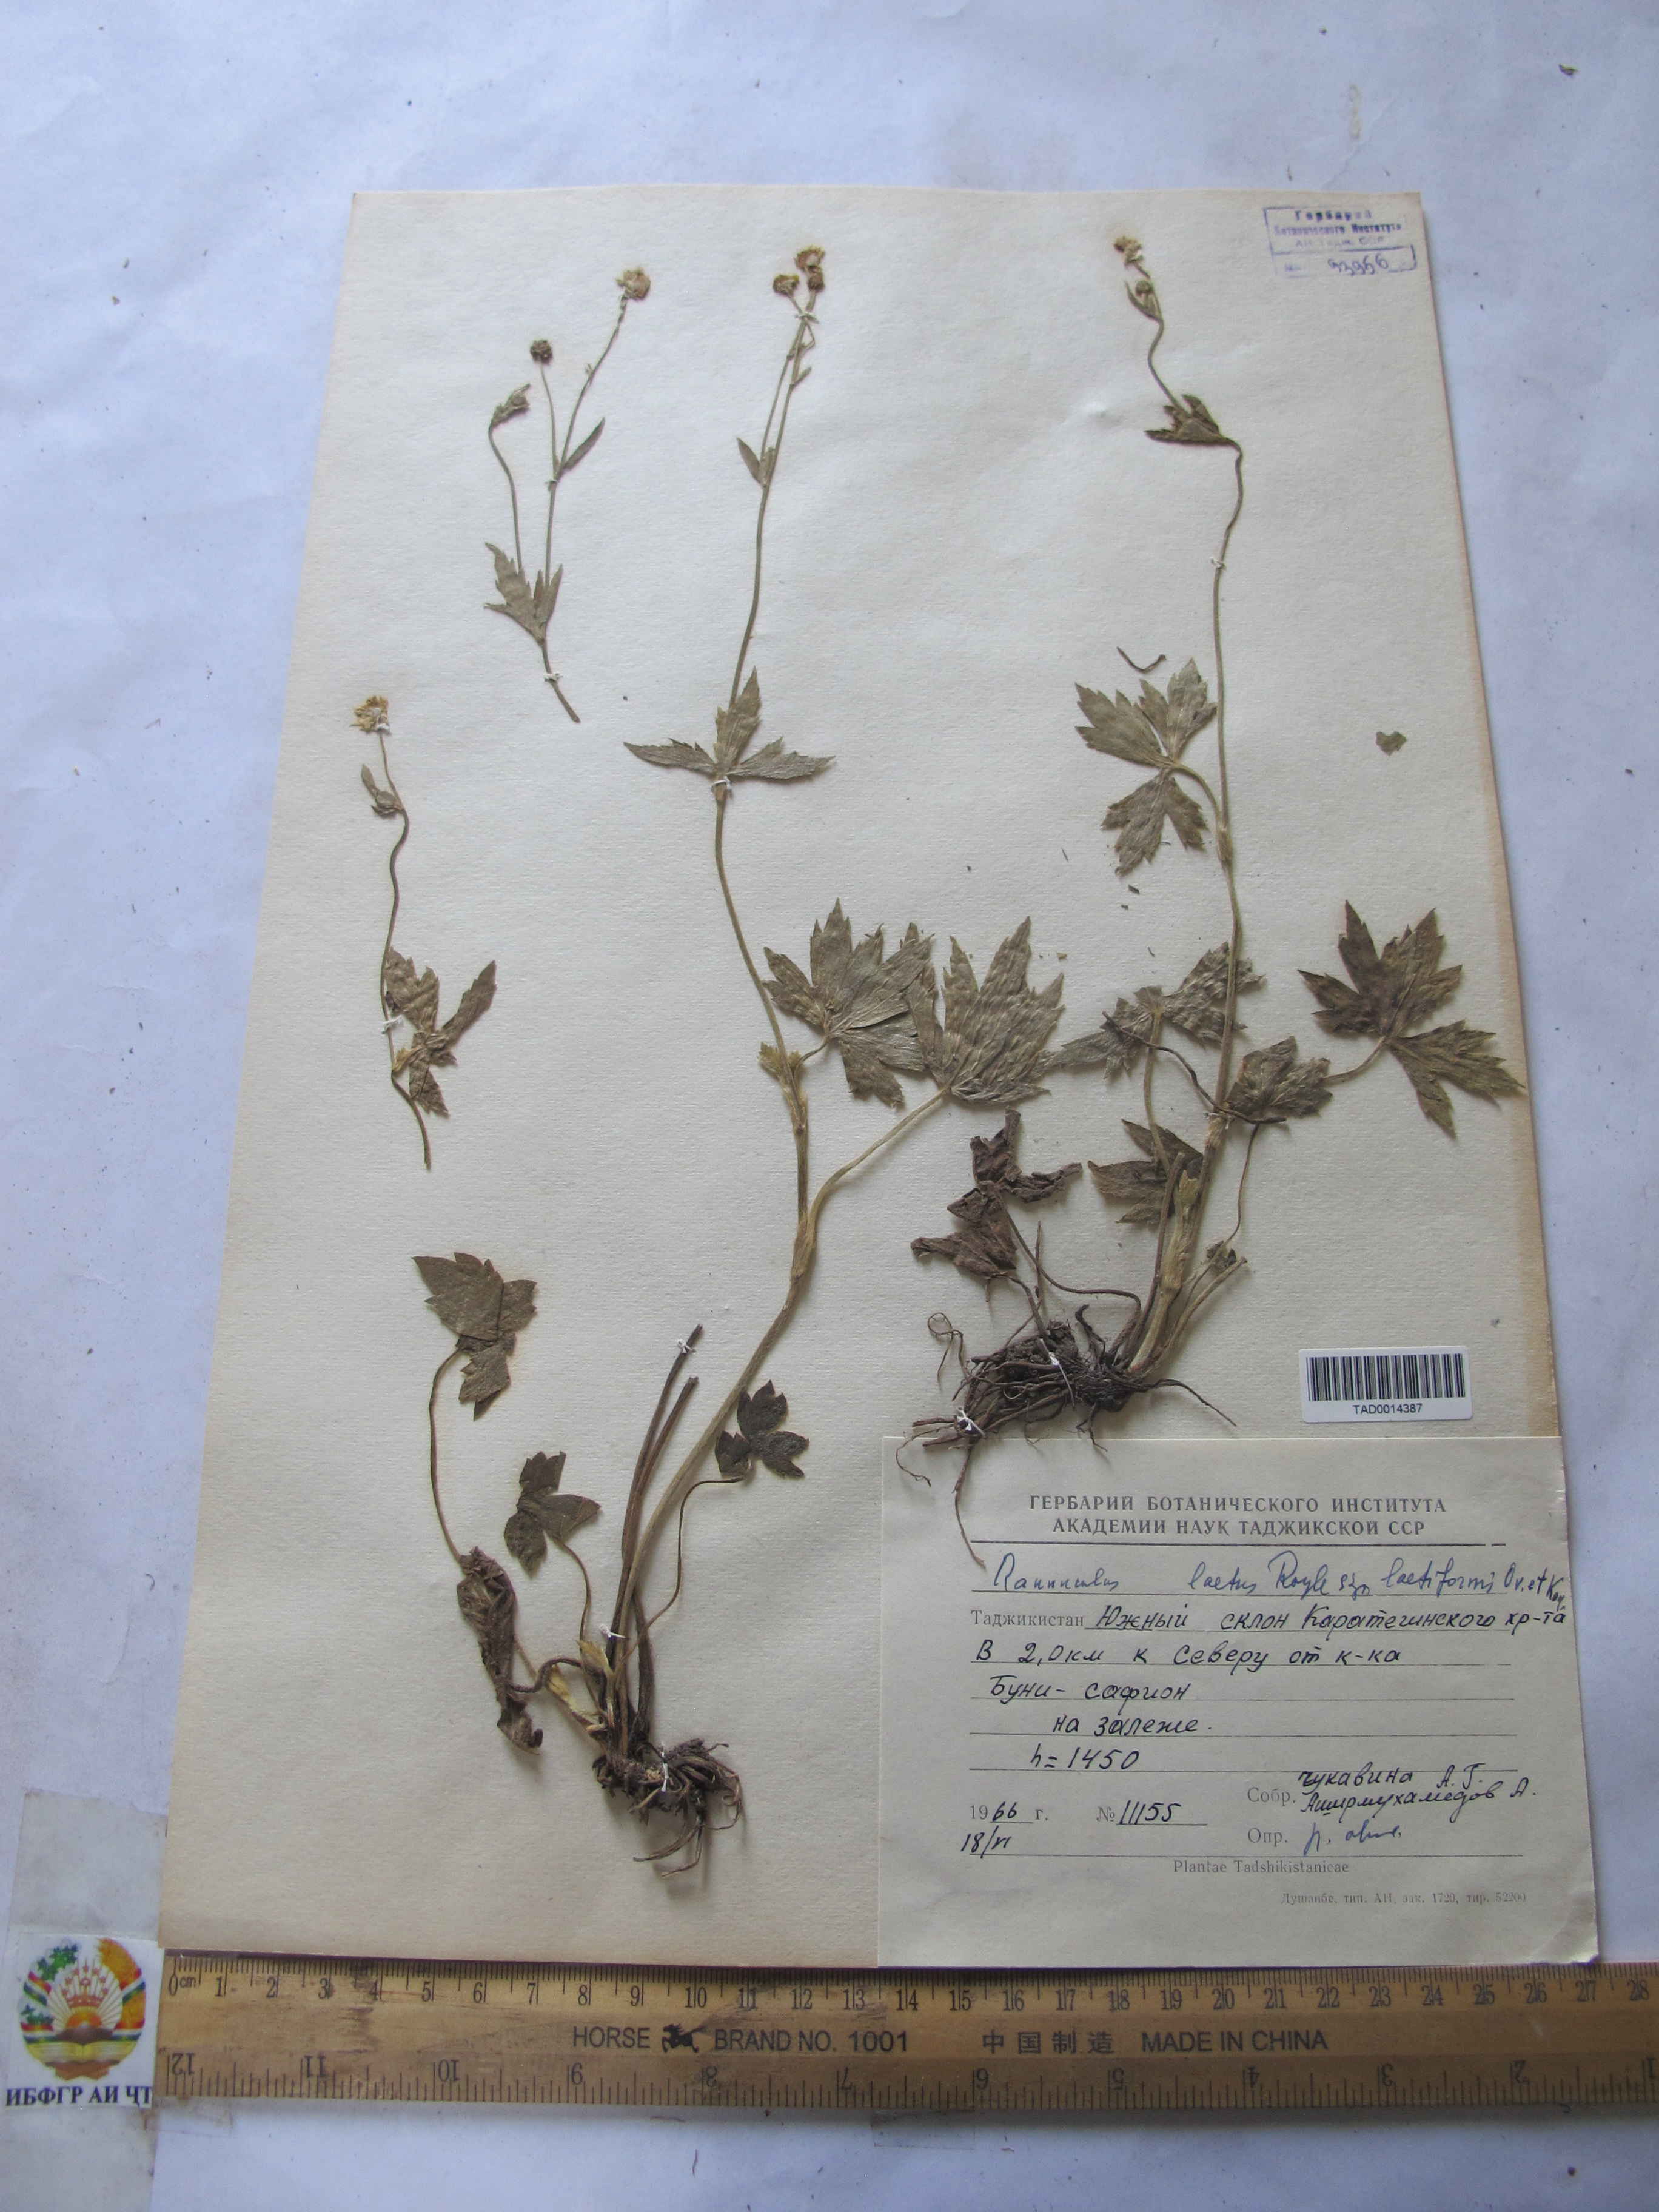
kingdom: Plantae
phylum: Tracheophyta
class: Magnoliopsida
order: Ranunculales
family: Ranunculaceae
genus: Ranunculus
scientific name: Ranunculus distans
